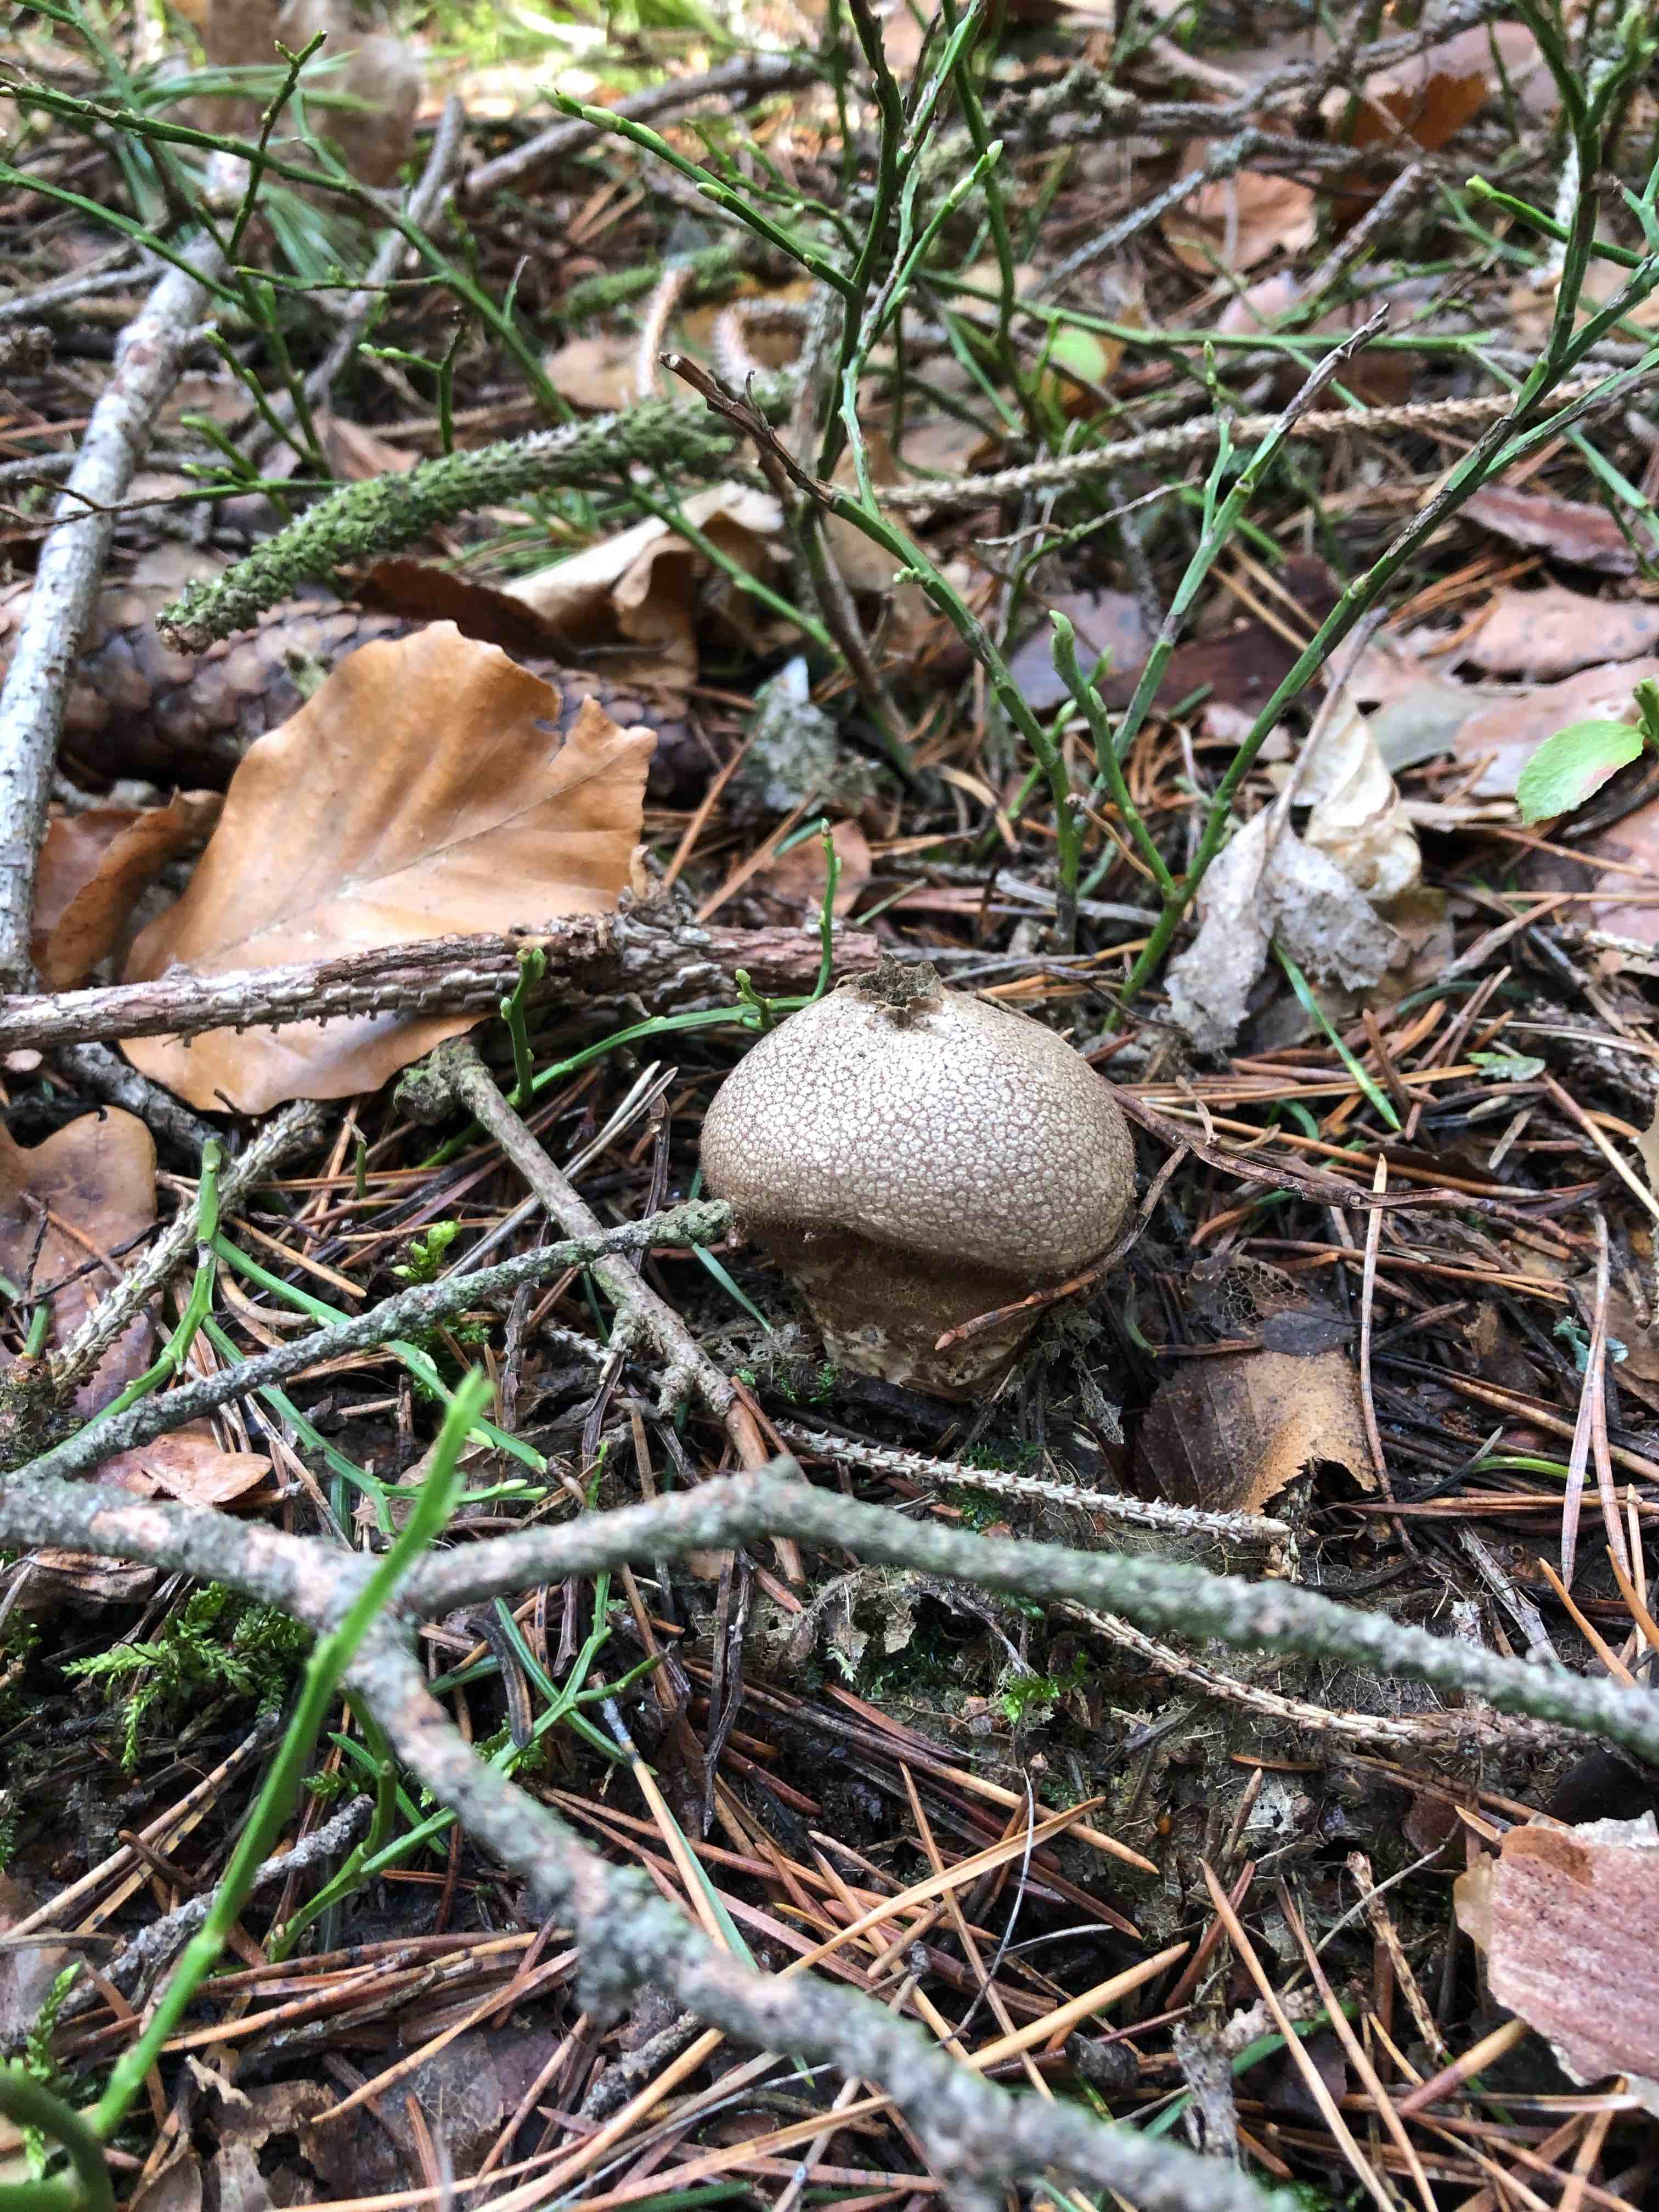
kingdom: Fungi
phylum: Basidiomycota
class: Agaricomycetes
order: Agaricales
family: Lycoperdaceae
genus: Lycoperdon
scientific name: Lycoperdon perlatum
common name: krystal-støvbold
